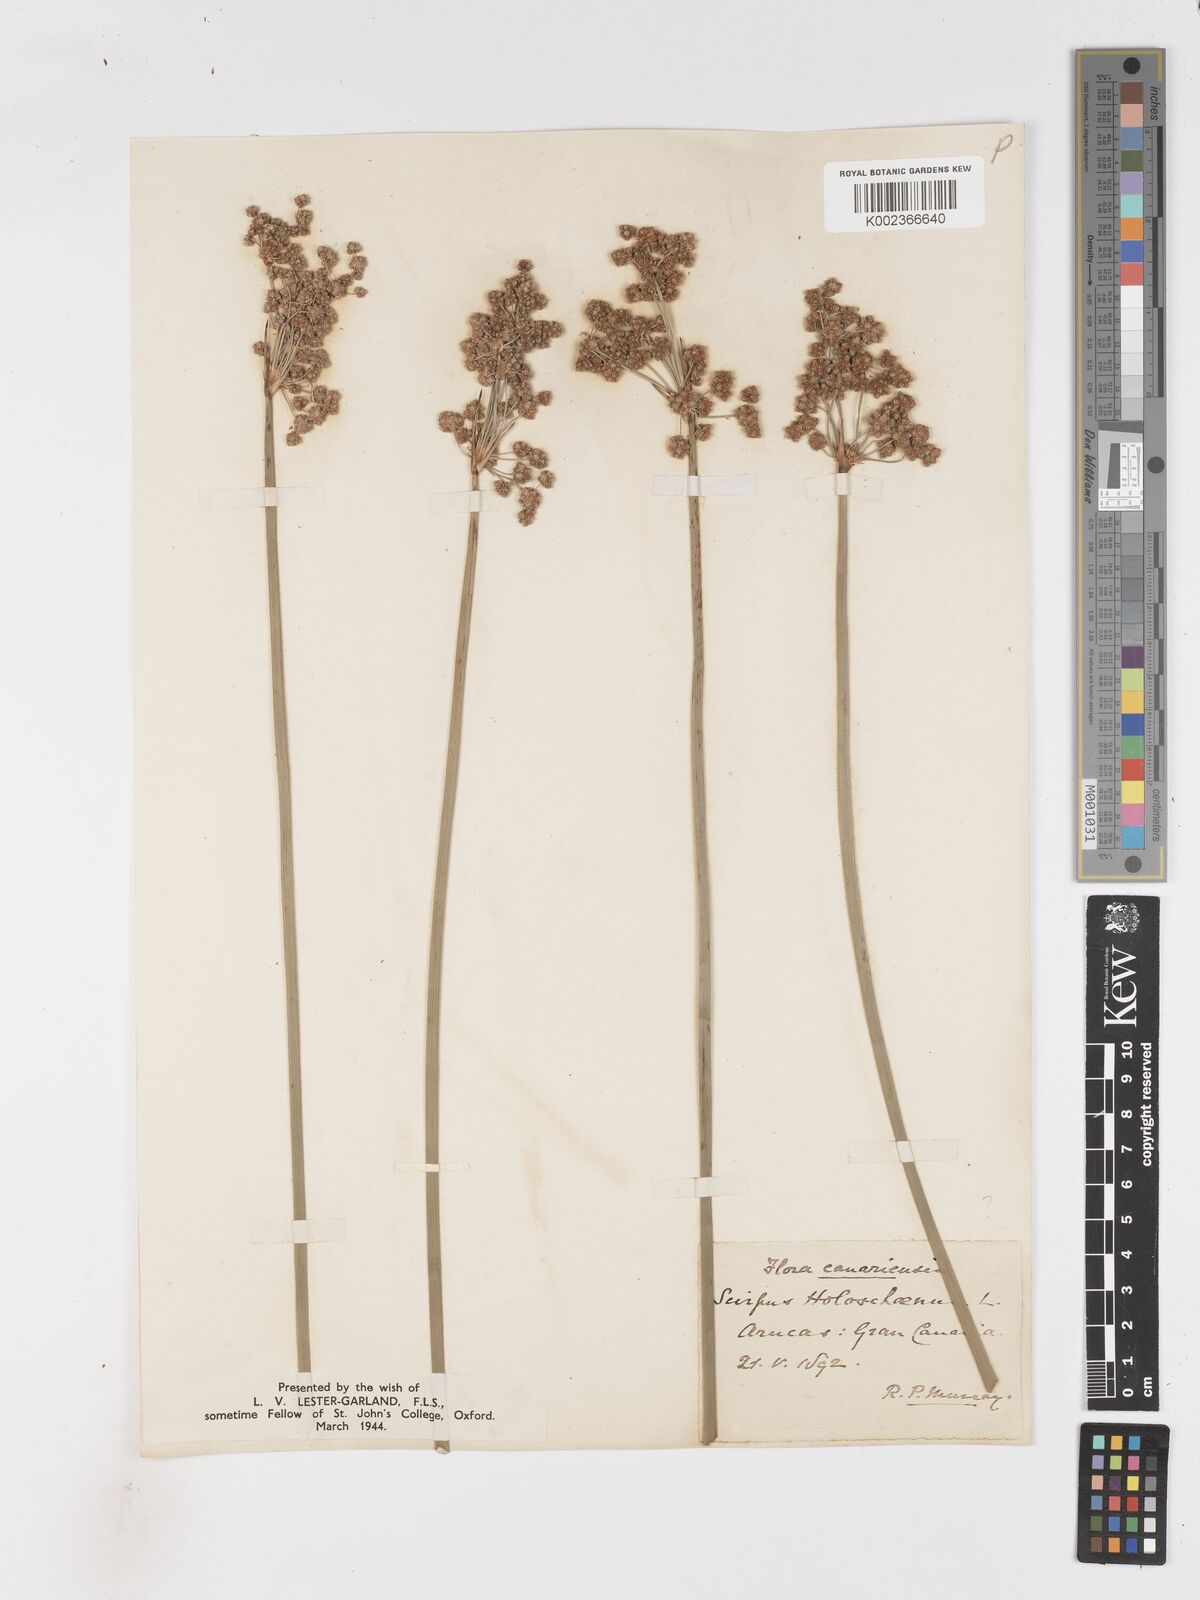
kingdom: Plantae
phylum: Tracheophyta
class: Liliopsida
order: Poales
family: Cyperaceae
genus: Scirpoides
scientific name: Scirpoides holoschoenus
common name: Round-headed club-rush
